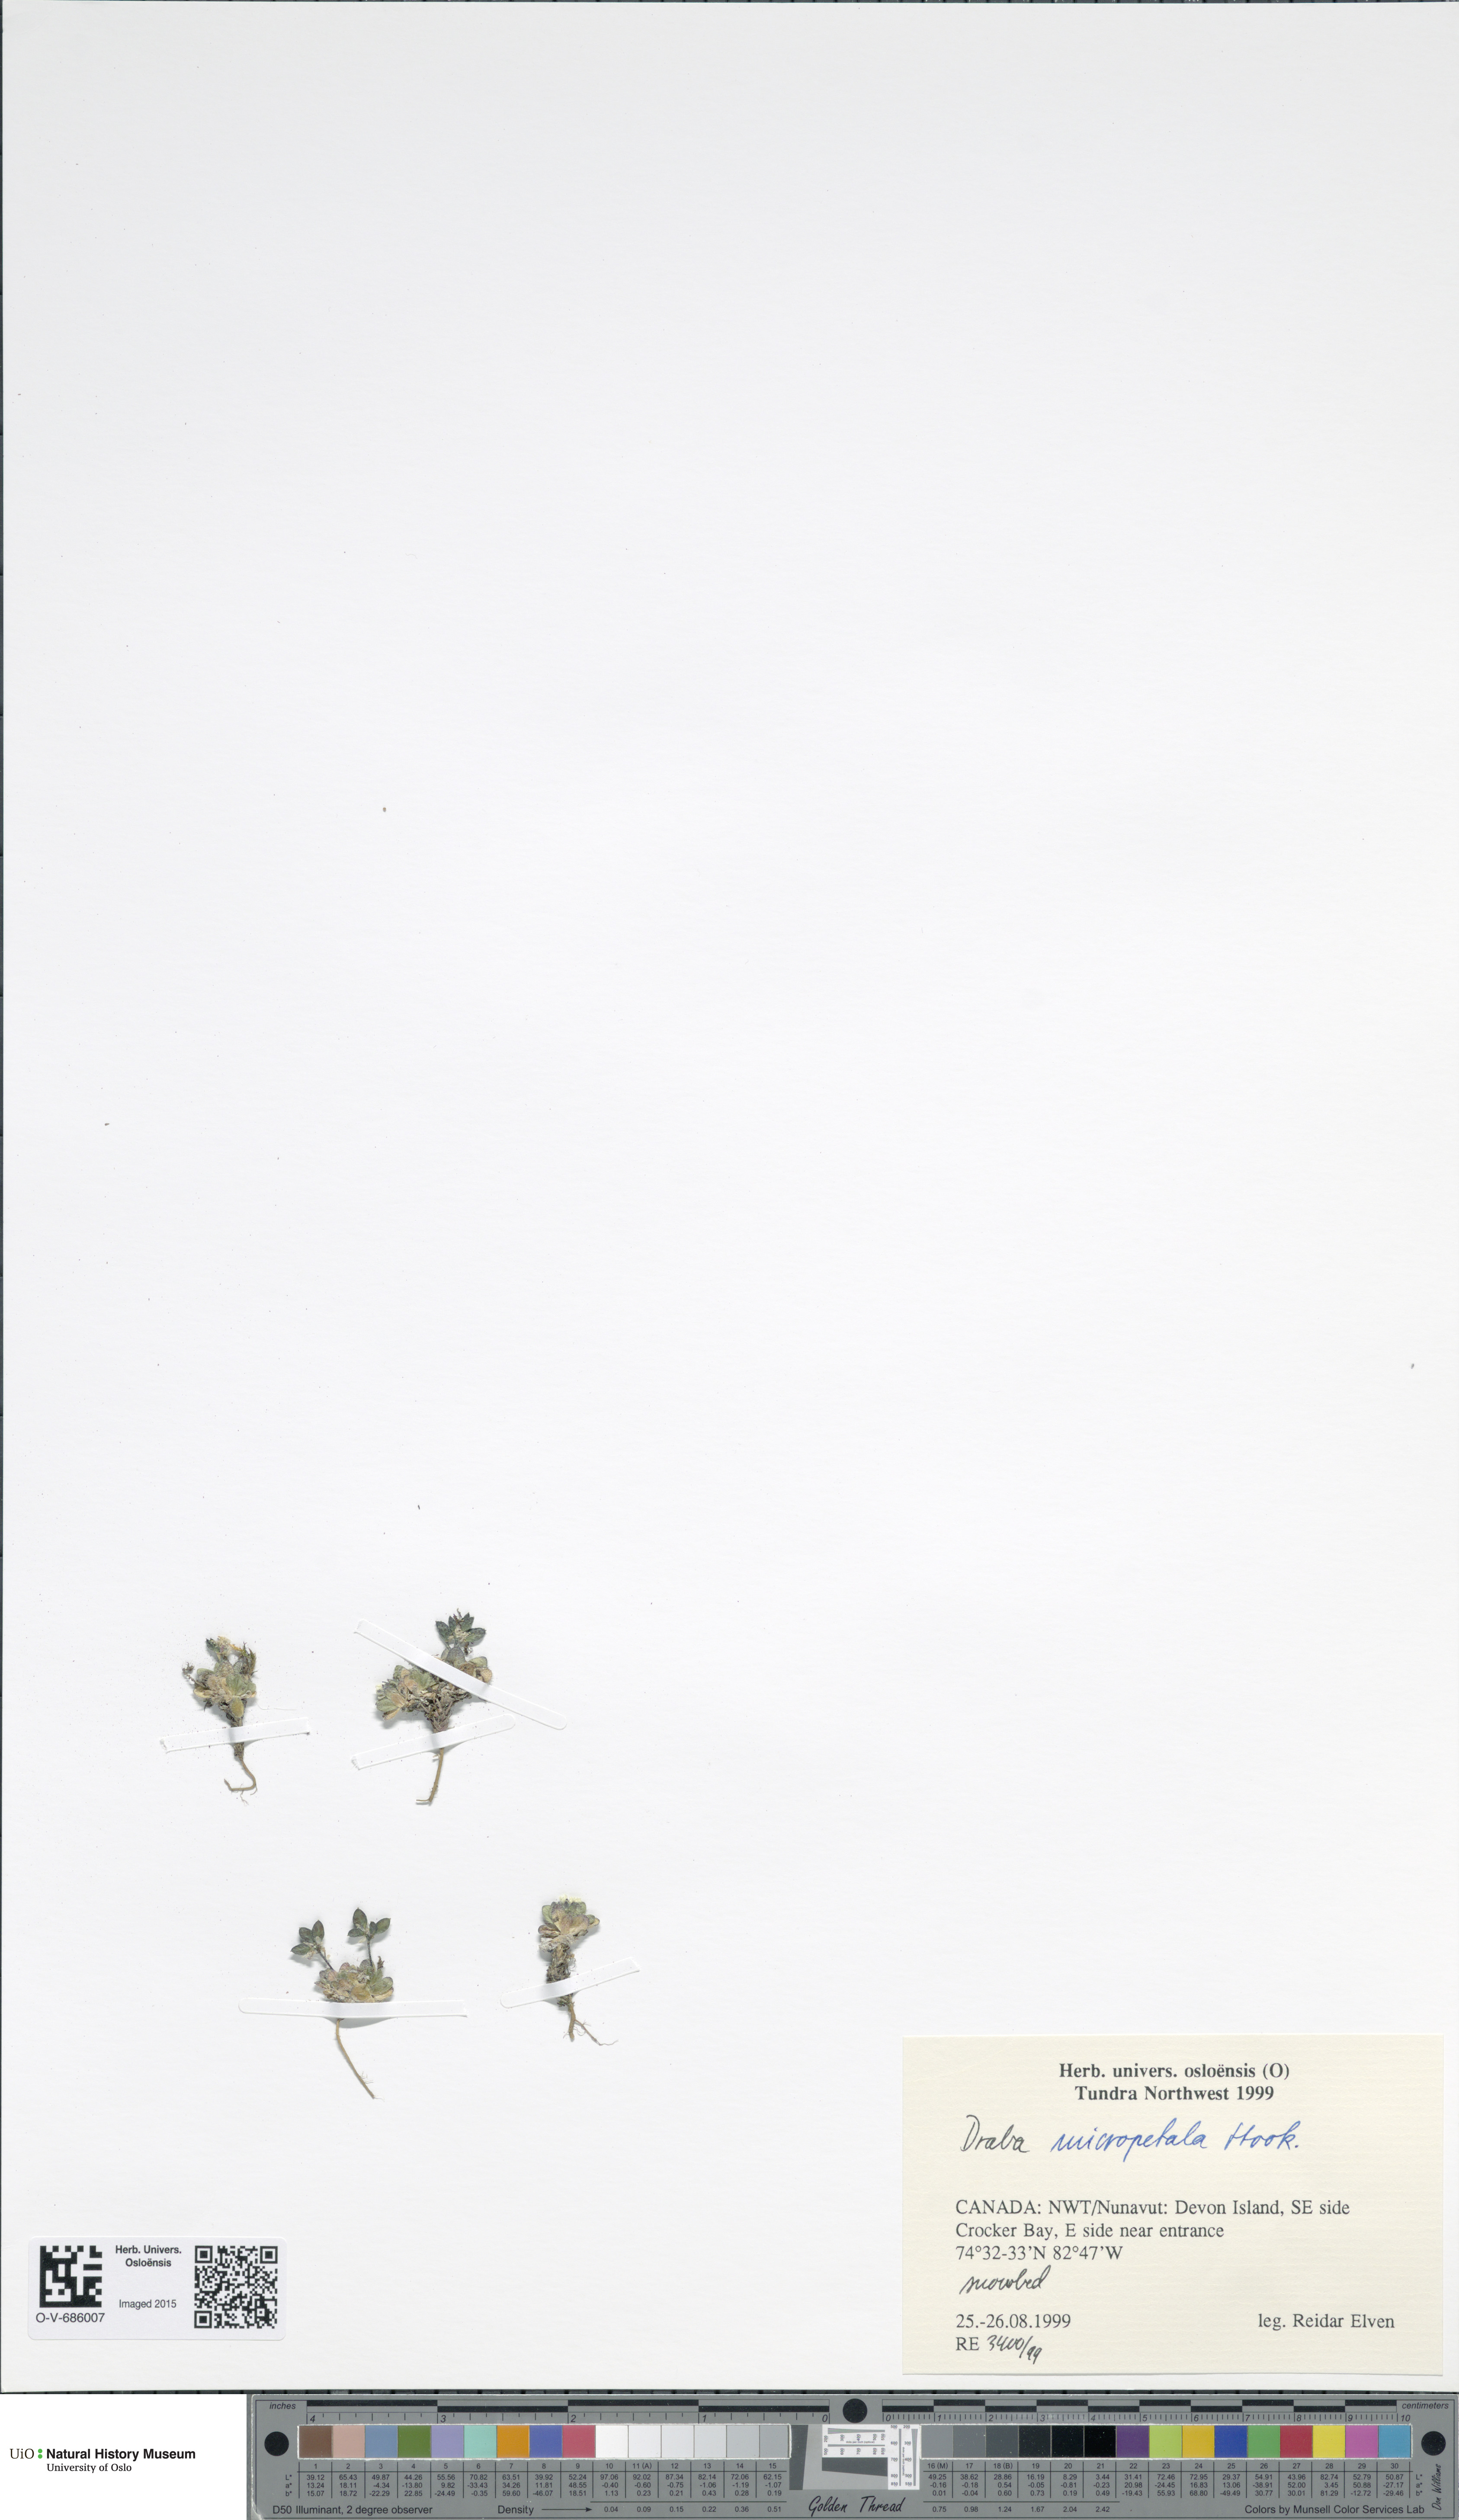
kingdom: Plantae
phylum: Tracheophyta
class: Magnoliopsida
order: Brassicales
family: Brassicaceae
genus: Draba
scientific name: Draba micropetala
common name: Small-flowered draba
